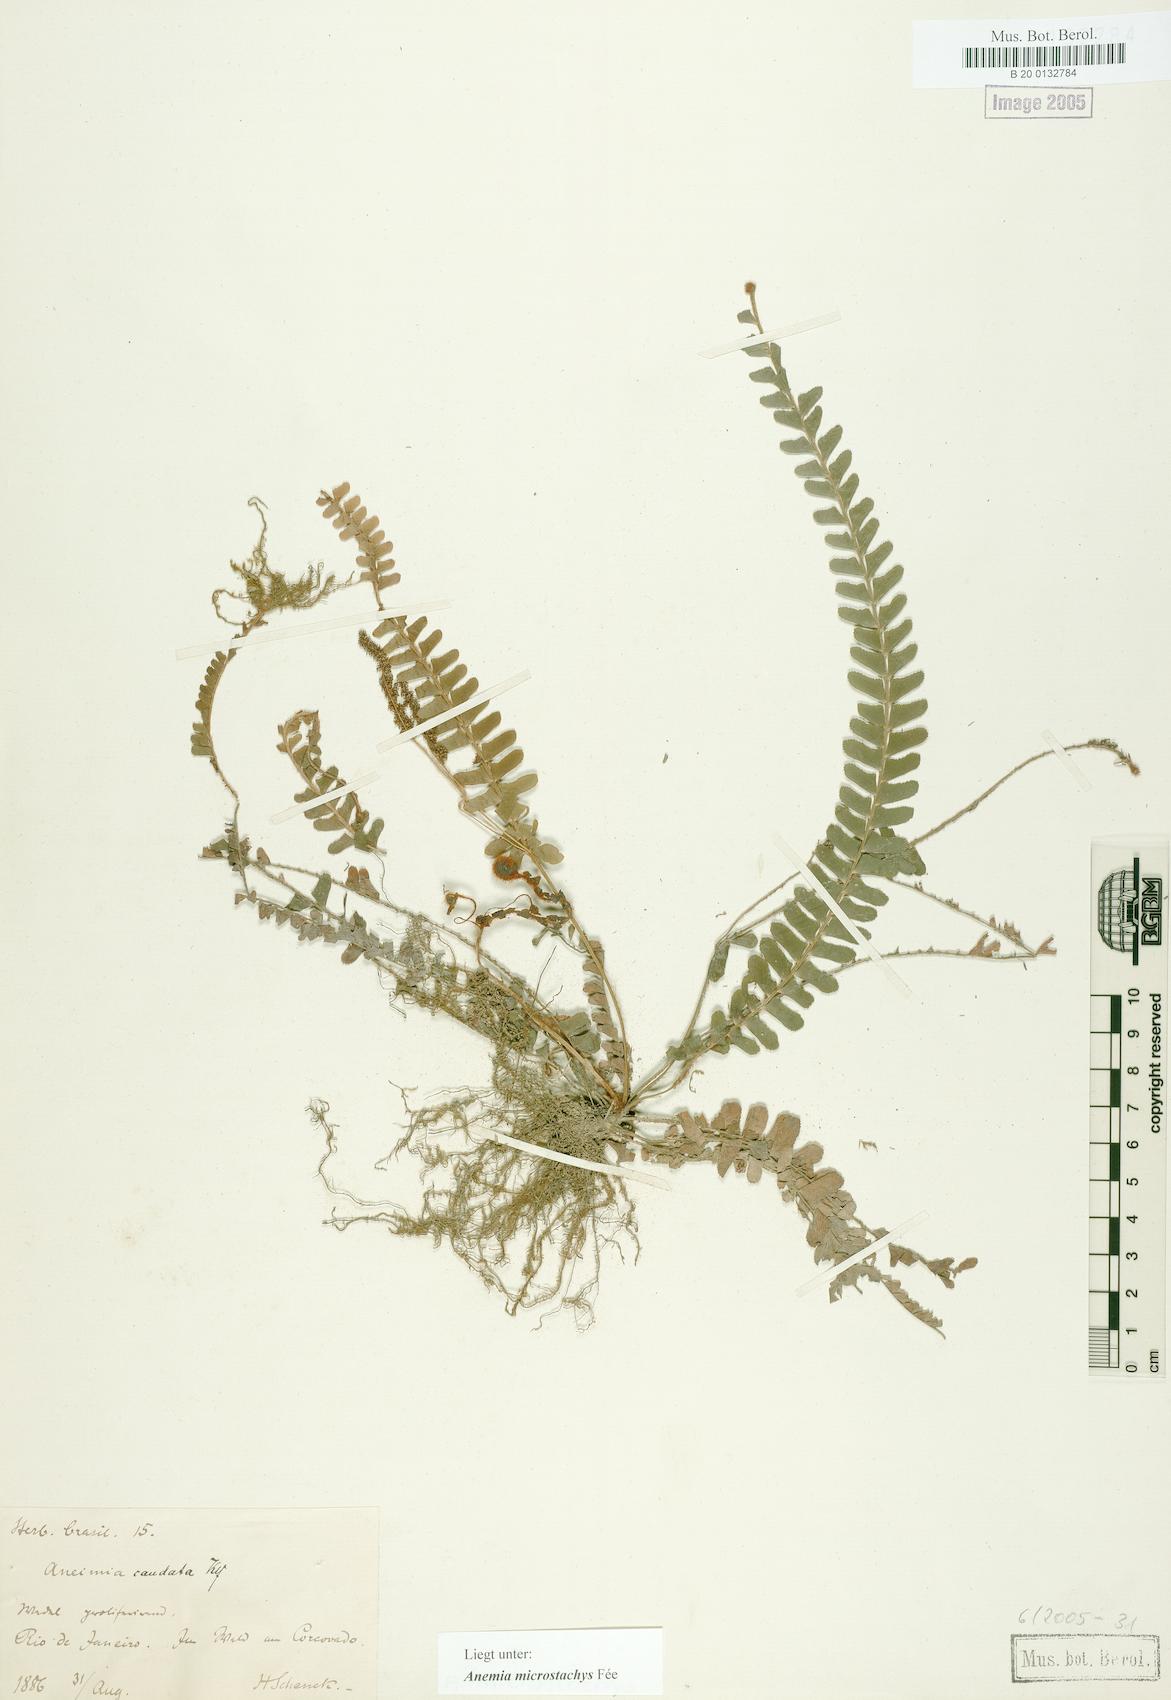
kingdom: Plantae
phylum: Tracheophyta
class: Polypodiopsida
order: Schizaeales
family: Anemiaceae
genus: Anemia
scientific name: Anemia hirta
